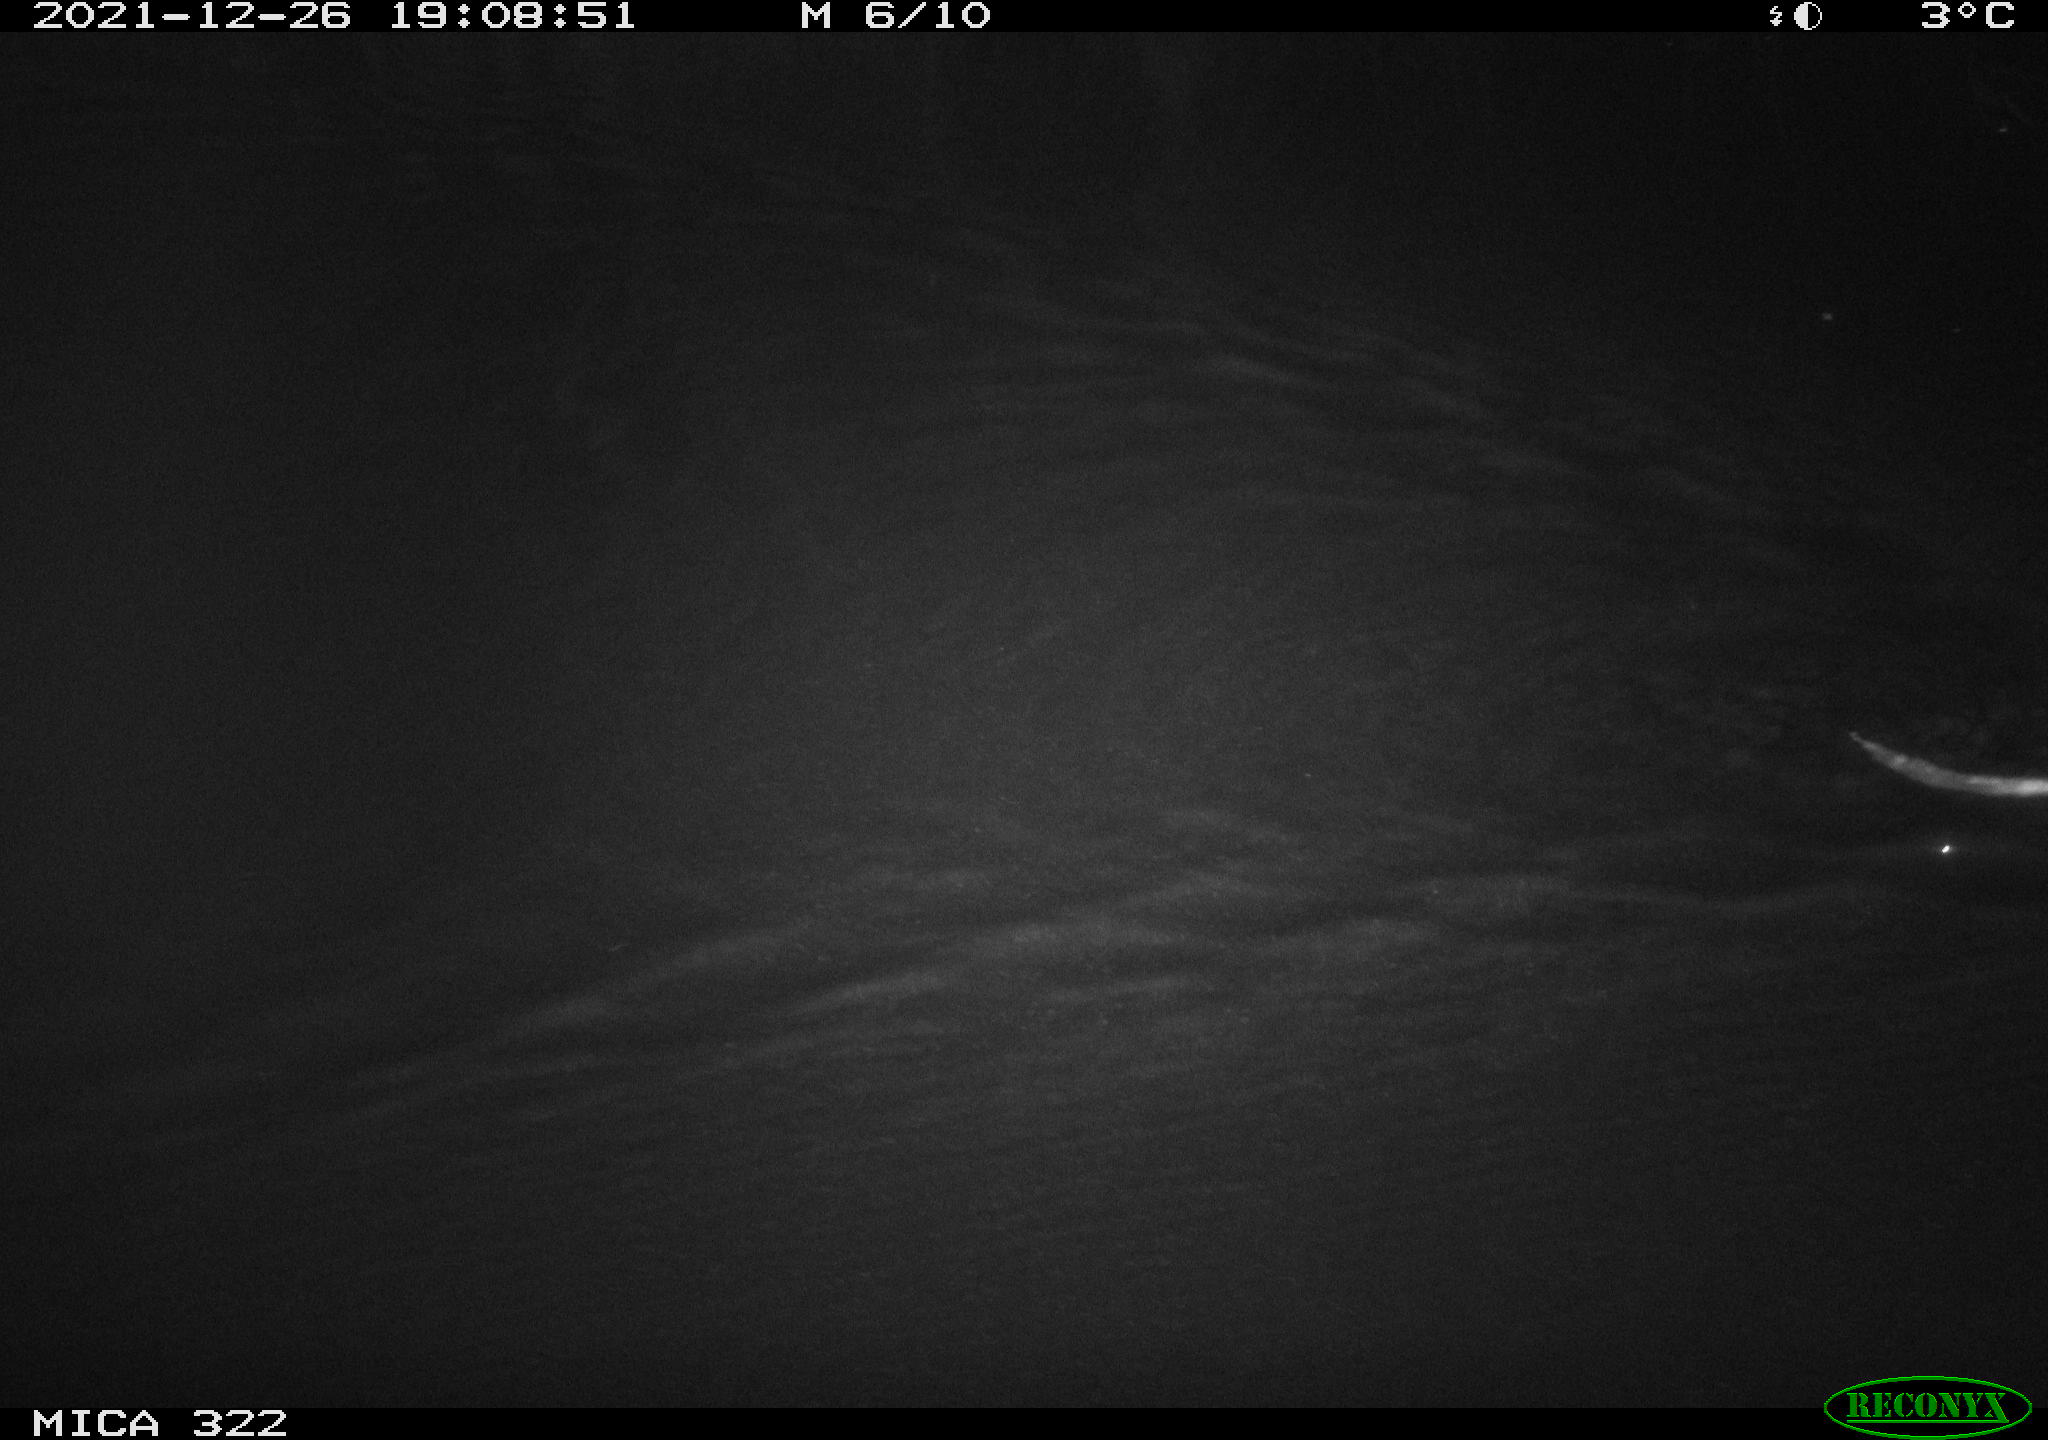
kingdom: Animalia
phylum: Chordata
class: Mammalia
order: Rodentia
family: Muridae
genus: Rattus
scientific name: Rattus norvegicus
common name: Brown rat
